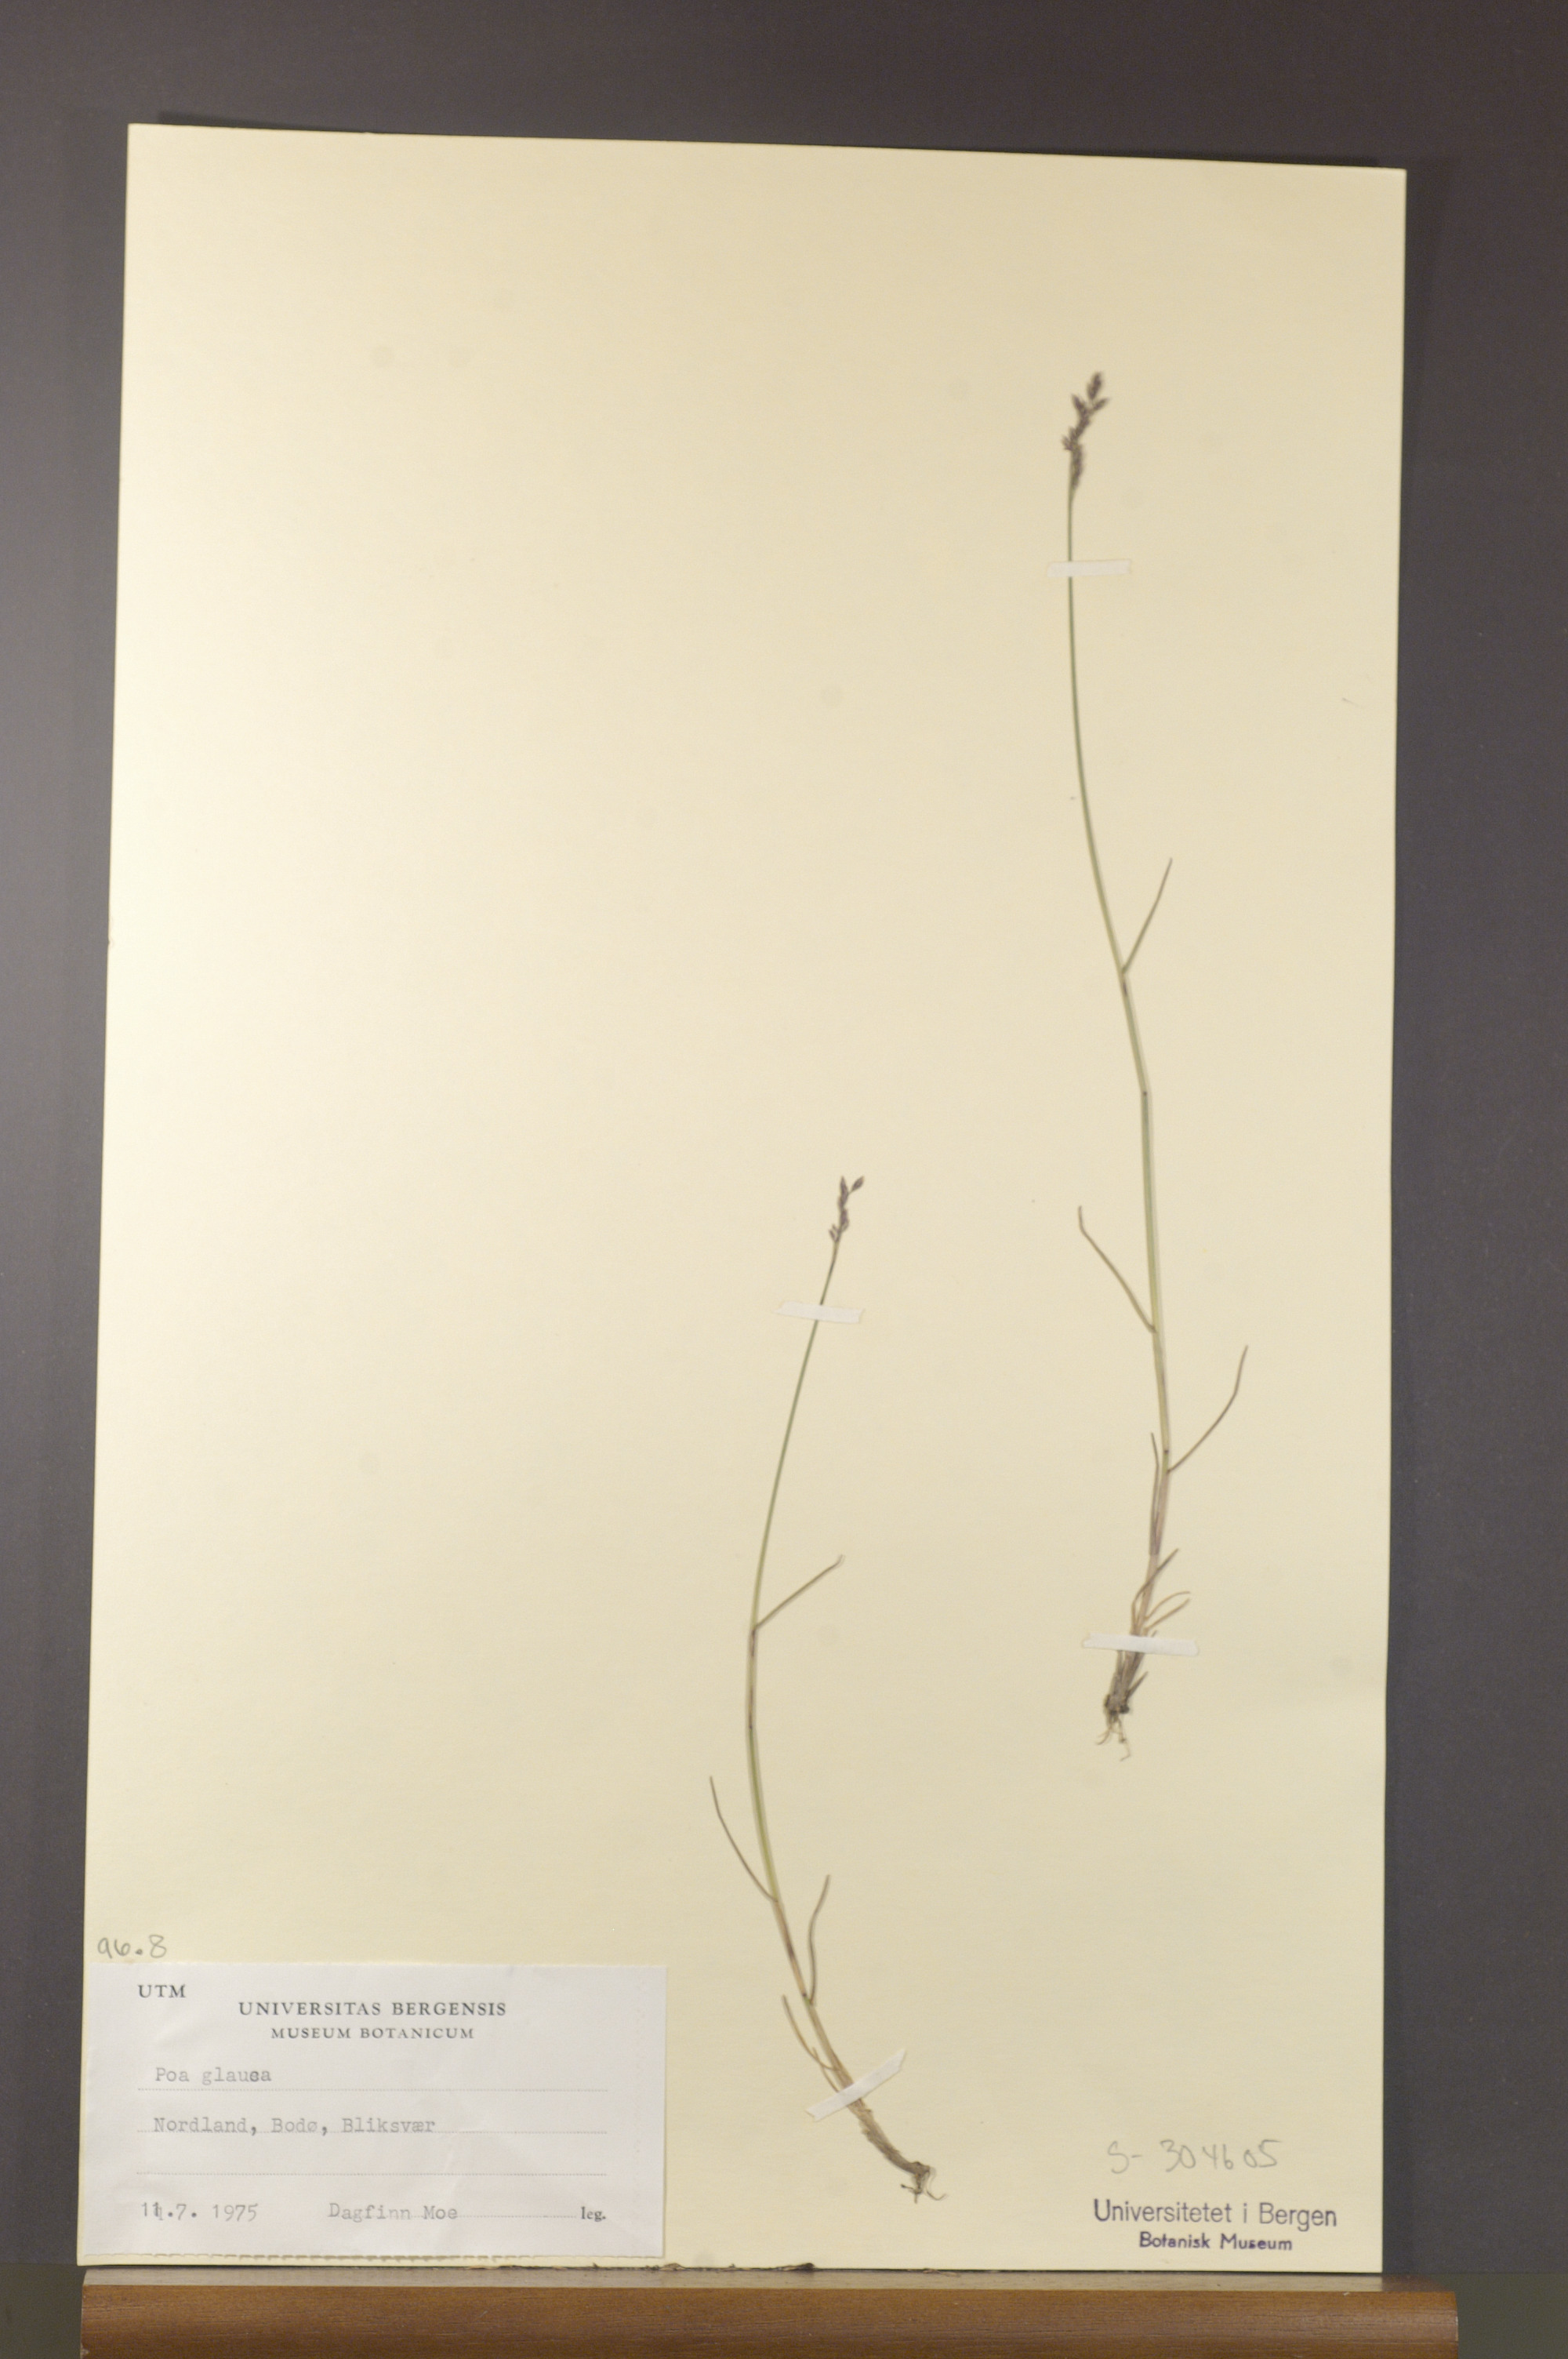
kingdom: Plantae
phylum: Tracheophyta
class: Liliopsida
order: Poales
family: Poaceae
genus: Poa
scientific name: Poa glauca
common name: Glaucous bluegrass
